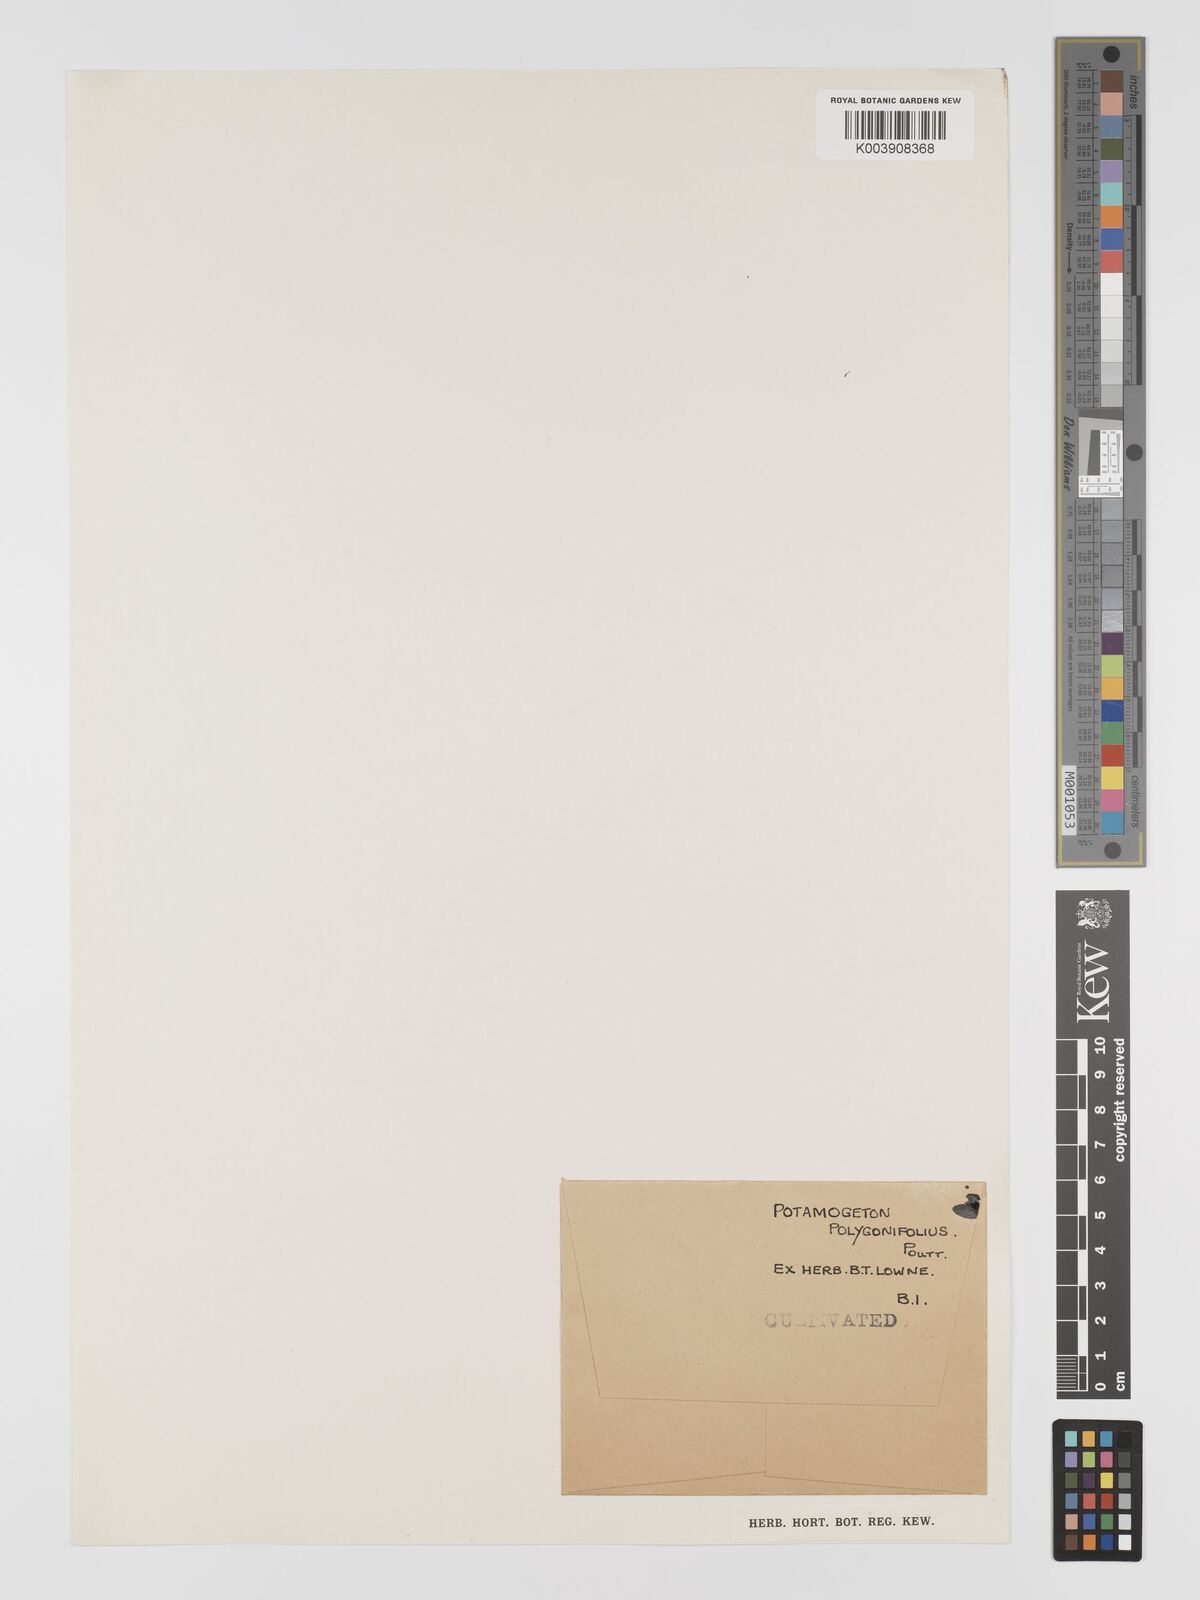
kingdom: Plantae
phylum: Tracheophyta
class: Liliopsida
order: Alismatales
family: Potamogetonaceae
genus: Potamogeton
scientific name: Potamogeton polygonifolius
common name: Bog pondweed
